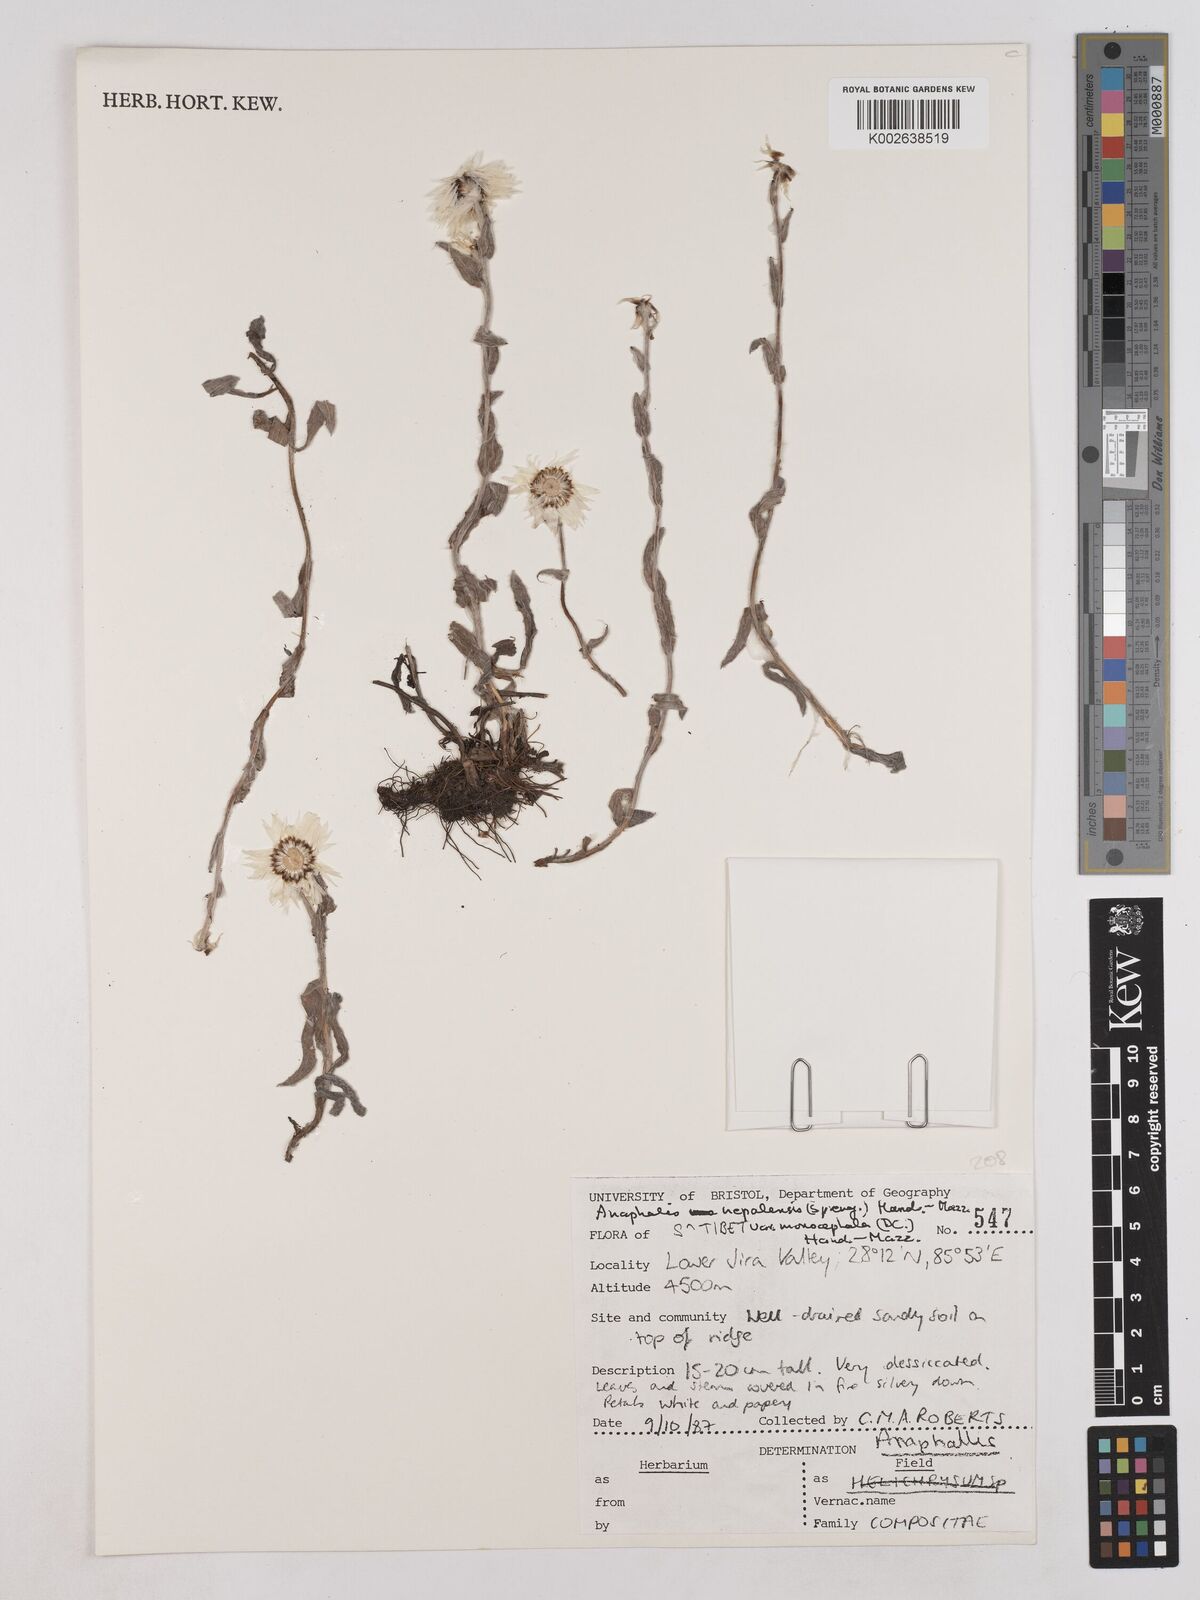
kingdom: Plantae
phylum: Tracheophyta
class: Magnoliopsida
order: Asterales
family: Asteraceae
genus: Anaphalis
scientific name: Anaphalis nepalensis
